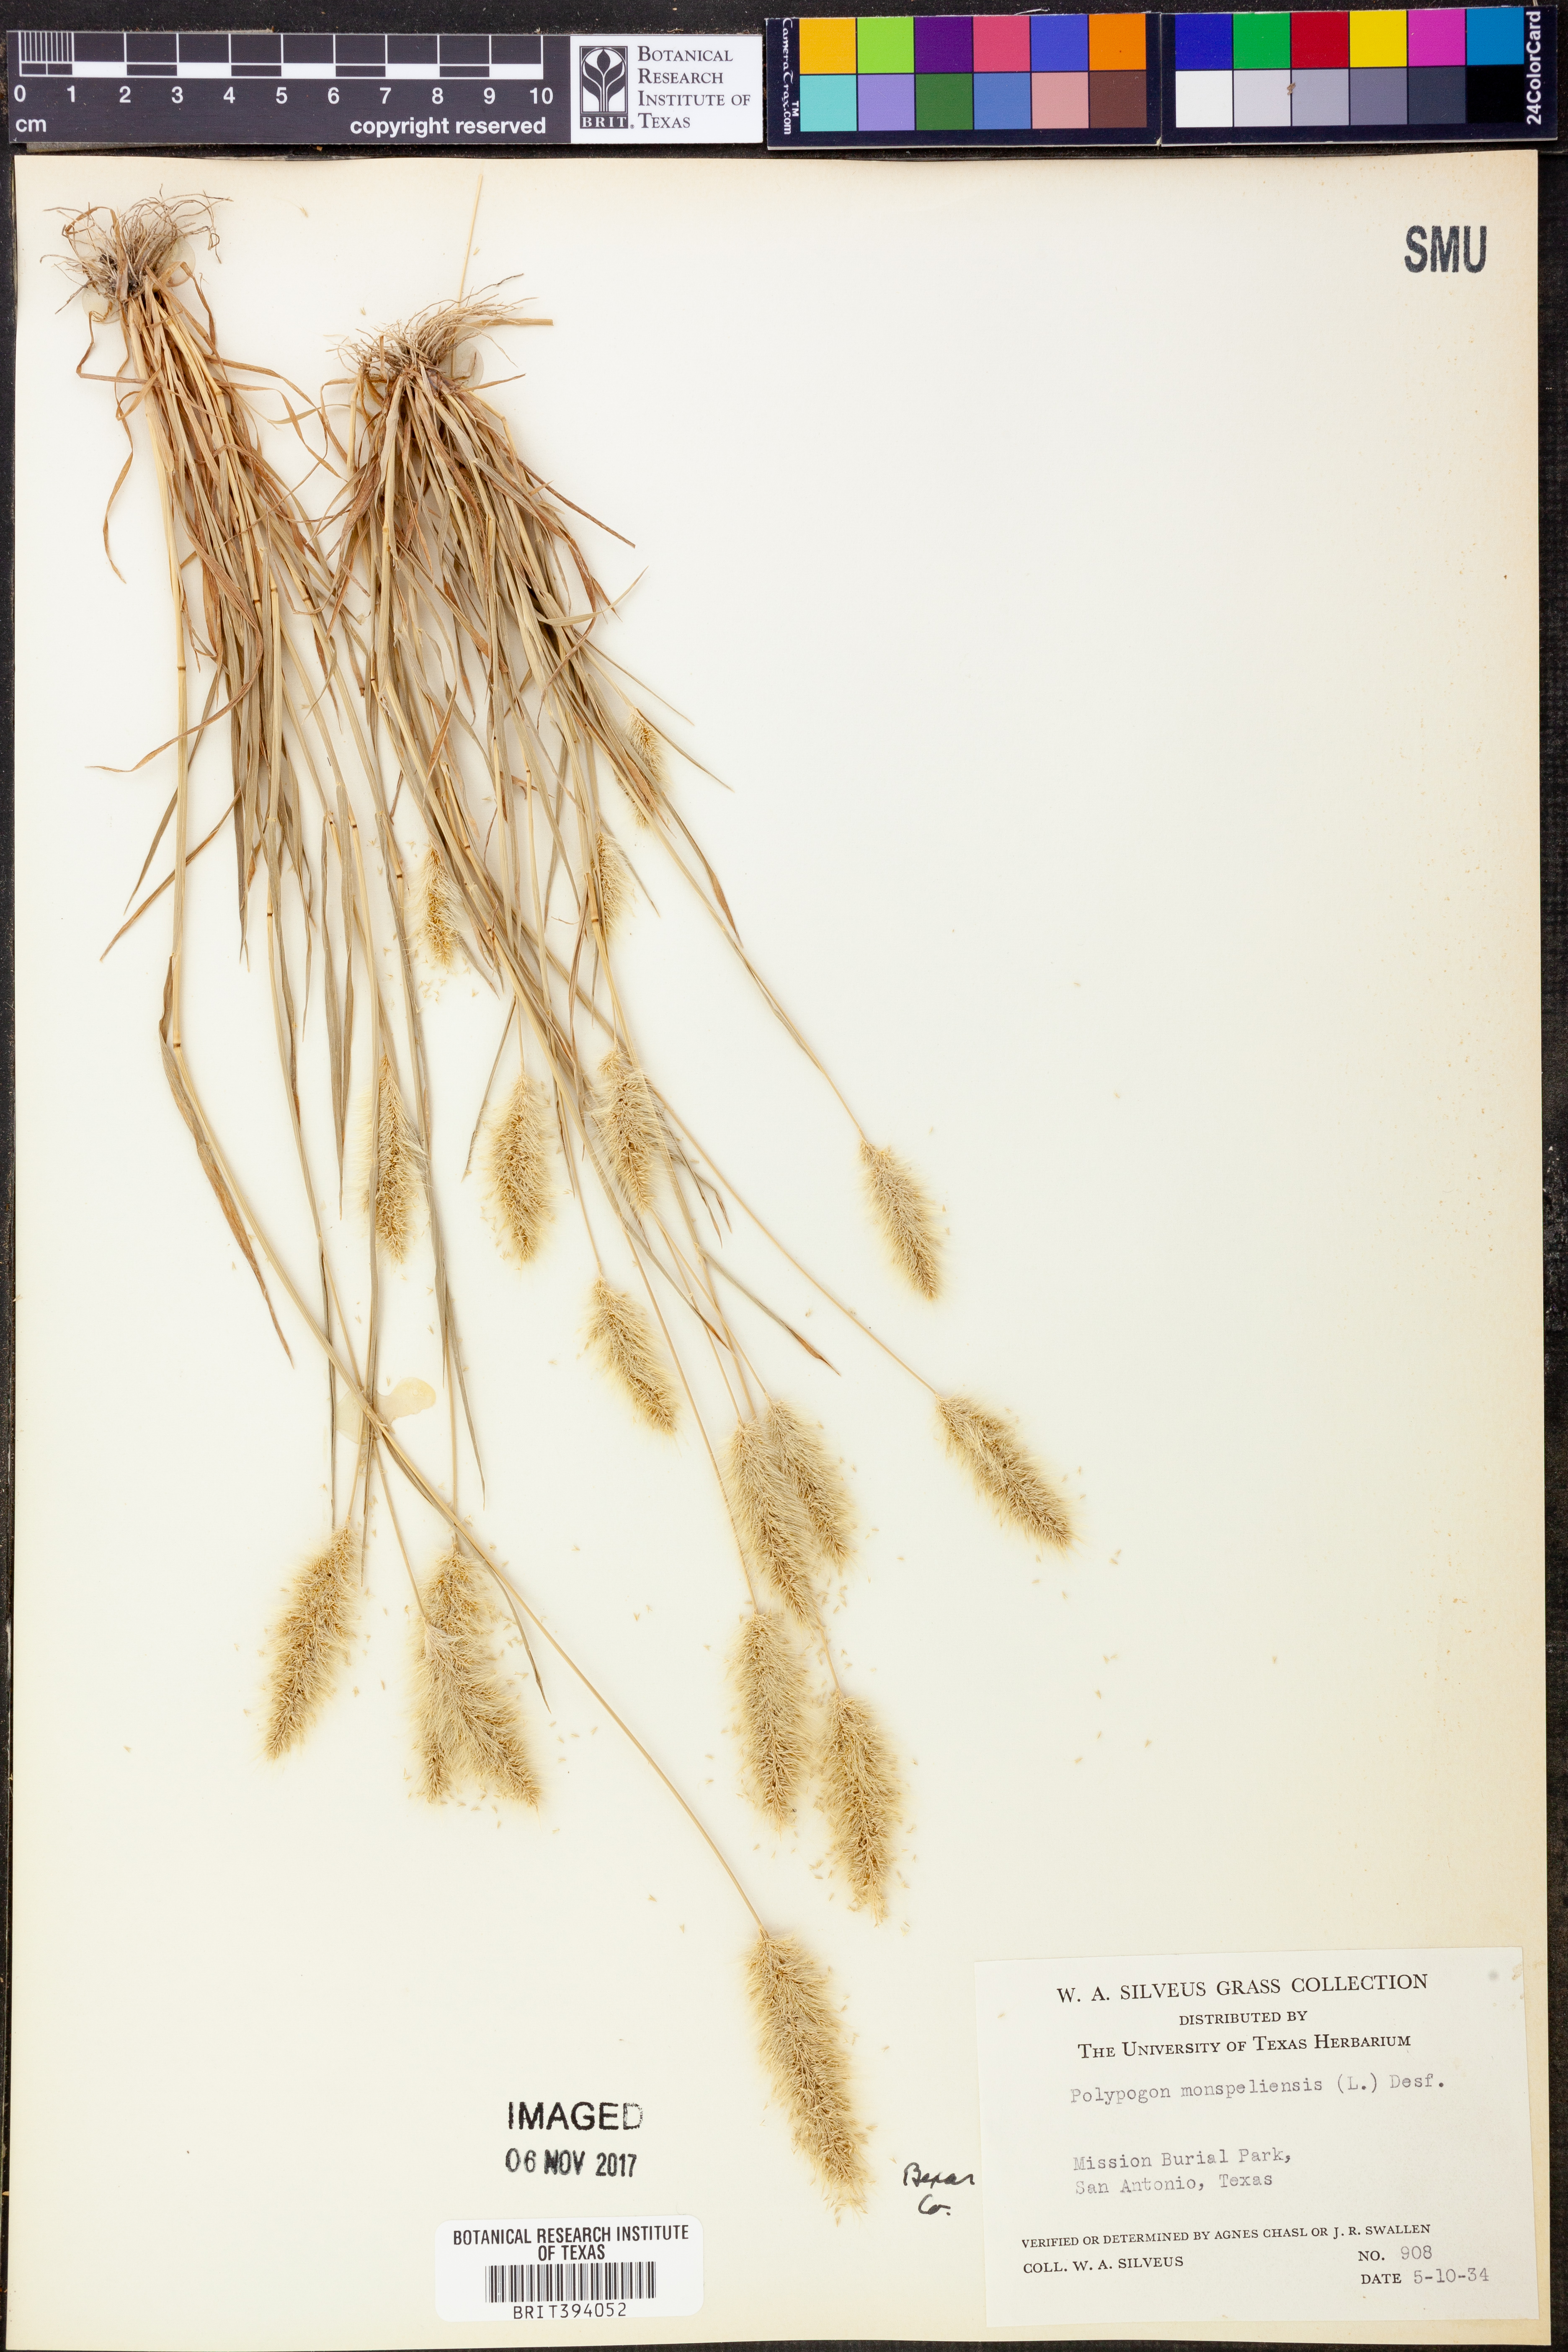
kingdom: Plantae
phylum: Tracheophyta
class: Liliopsida
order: Poales
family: Poaceae
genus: Polypogon
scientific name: Polypogon monspeliensis
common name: Annual rabbitsfoot grass
